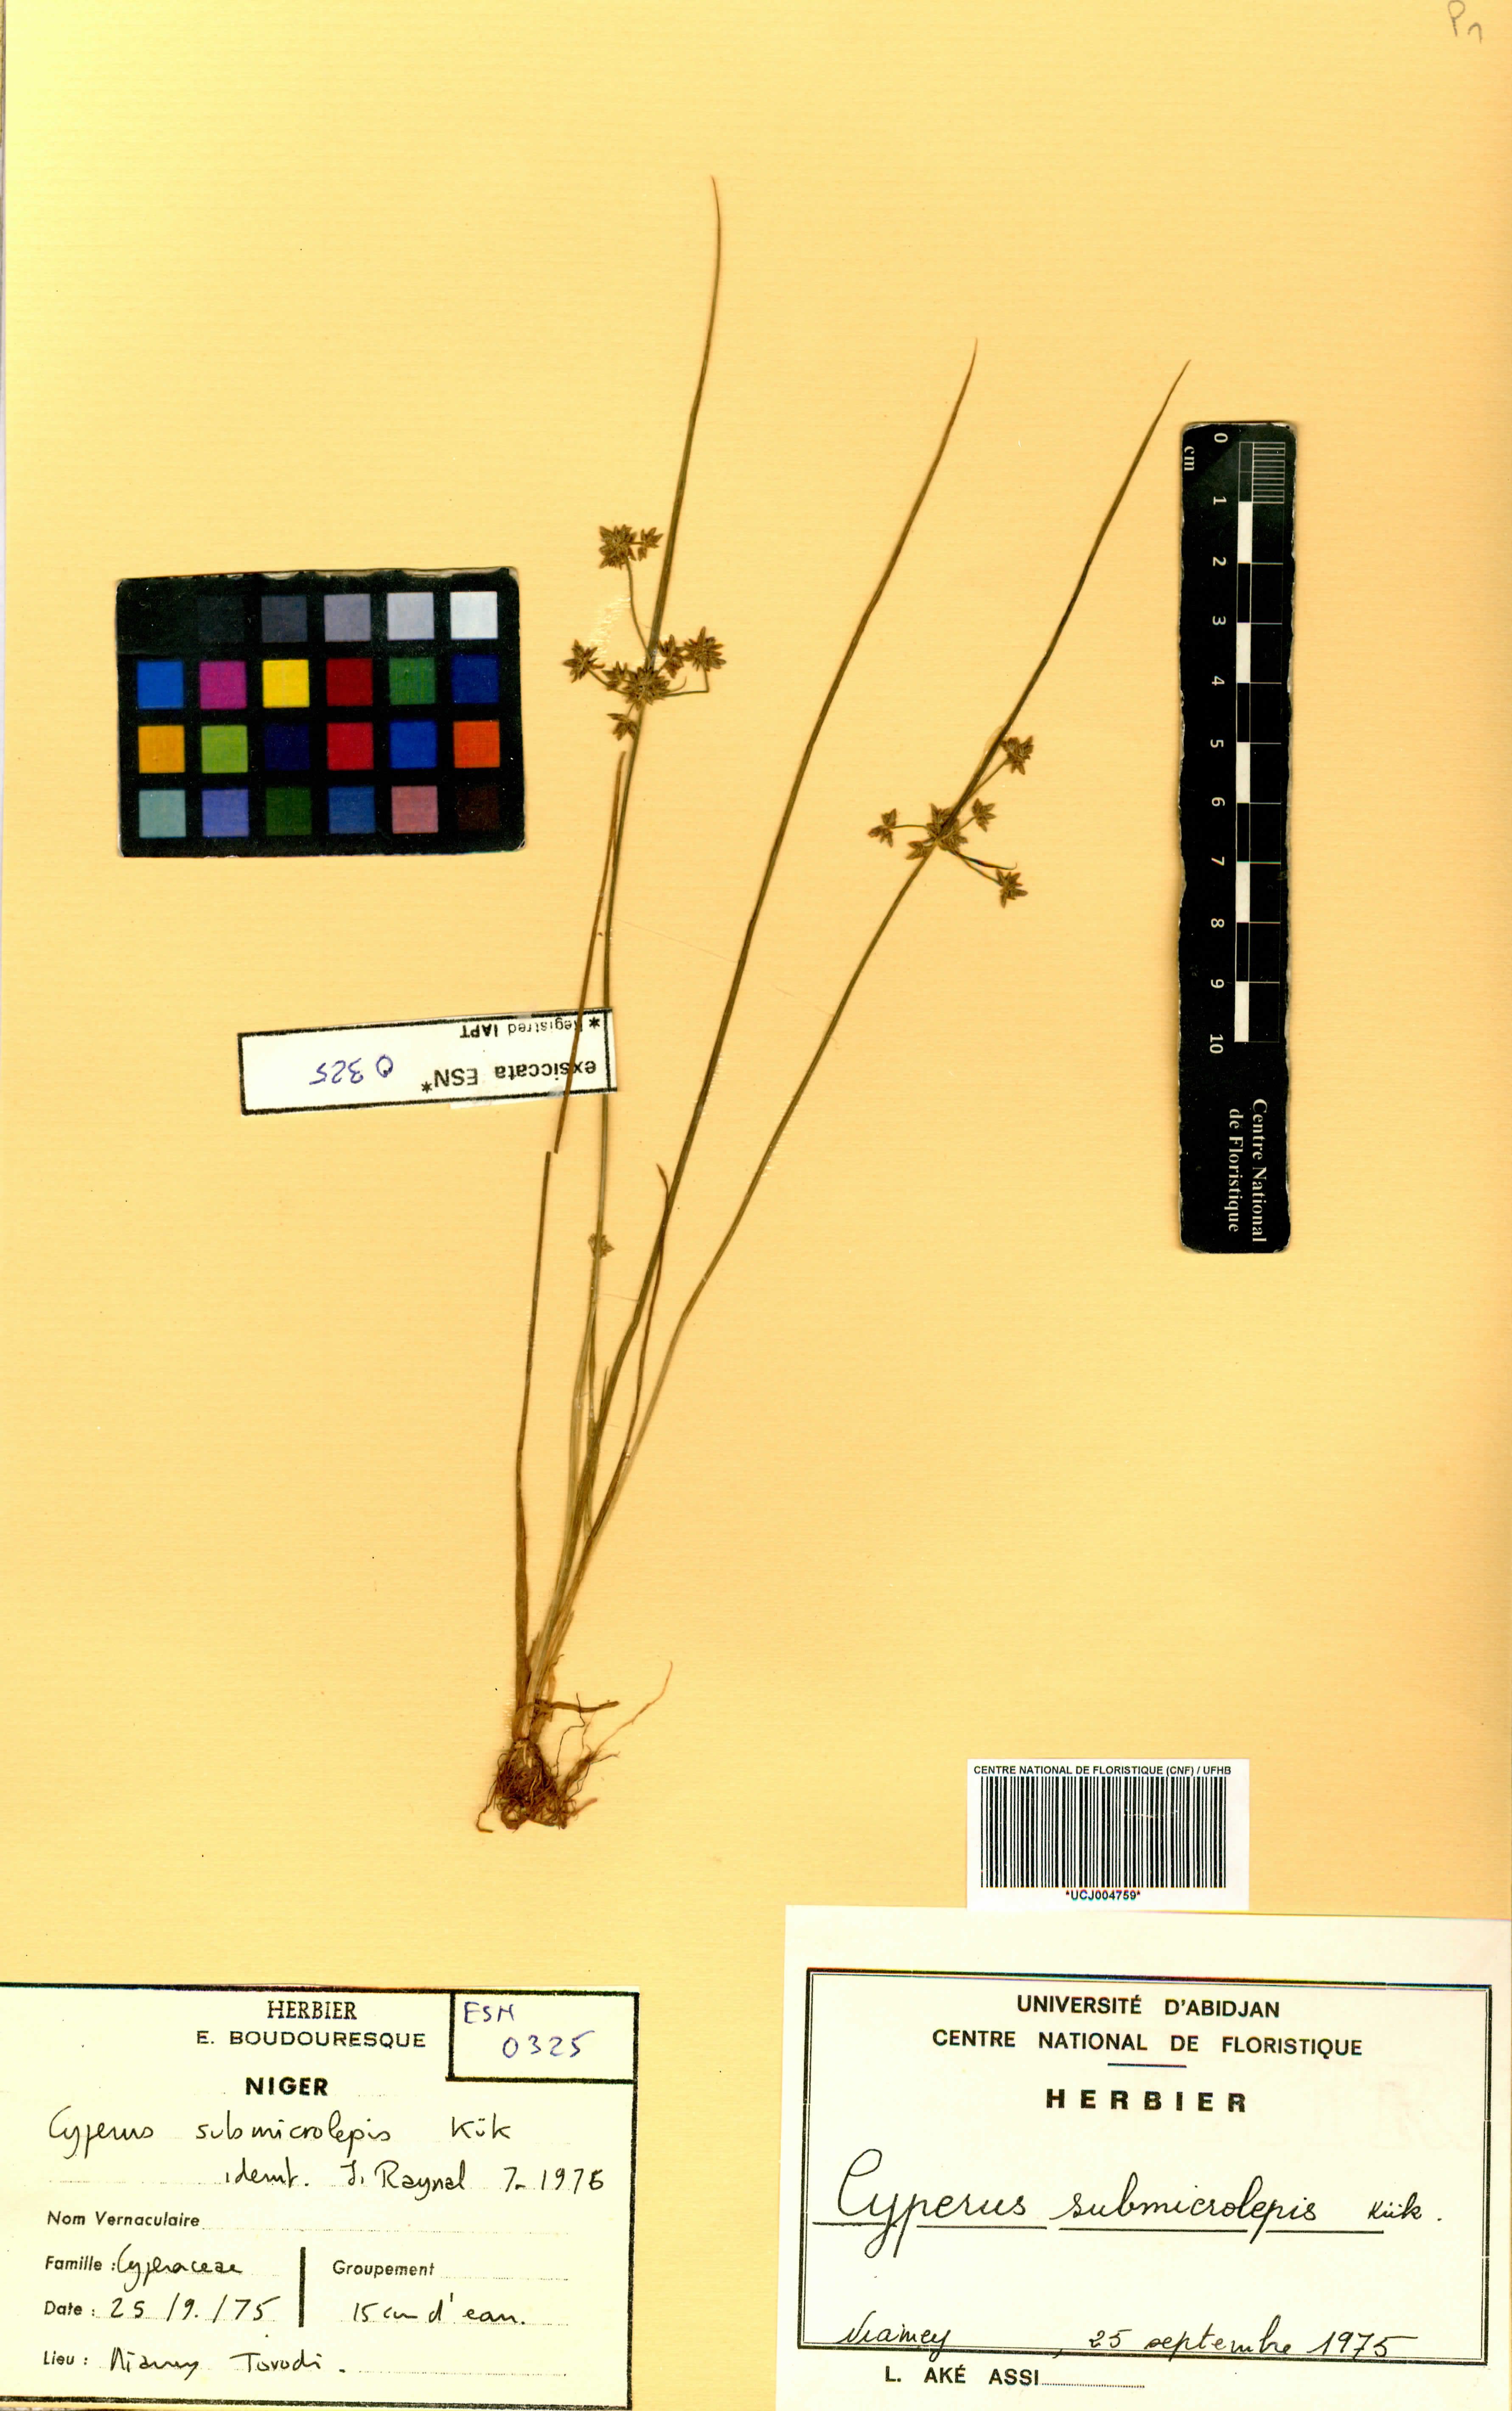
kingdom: Plantae
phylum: Tracheophyta
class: Liliopsida
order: Poales
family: Cyperaceae
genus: Cyperus
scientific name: Cyperus submicrolepis
